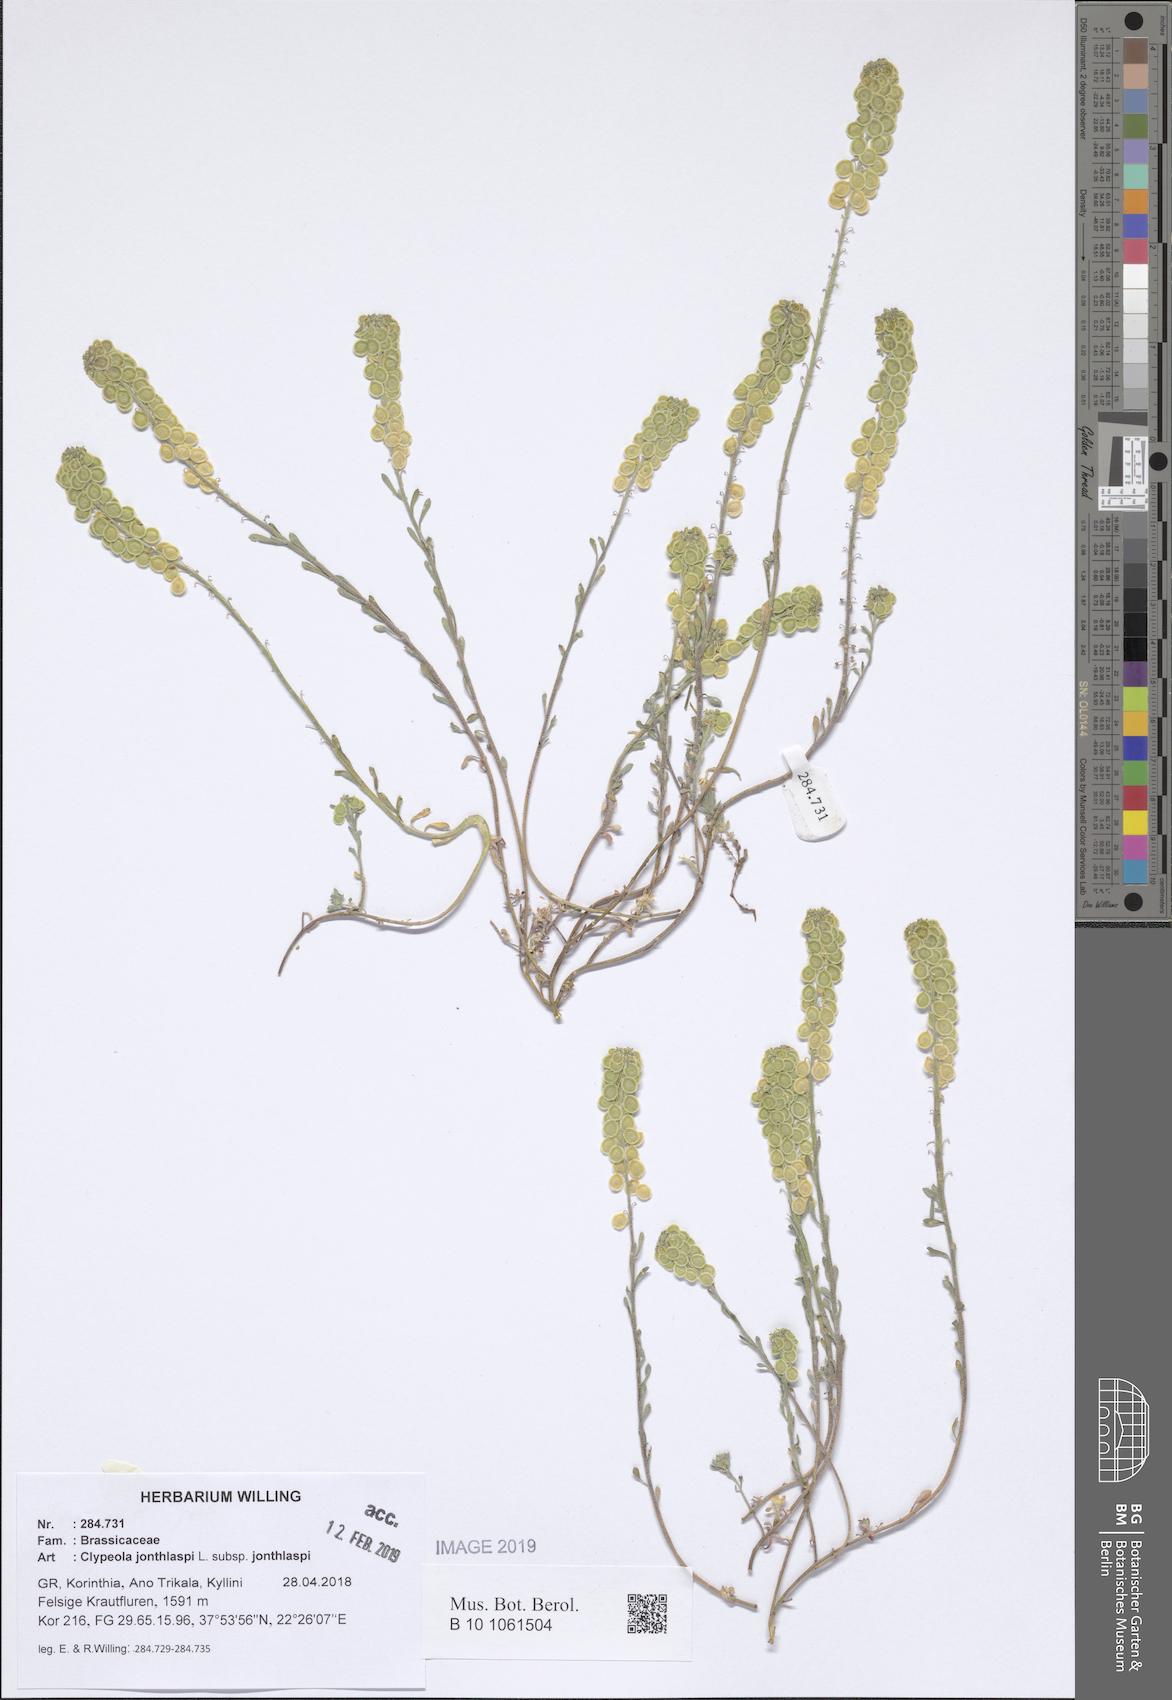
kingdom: Plantae
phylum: Tracheophyta
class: Magnoliopsida
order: Brassicales
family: Brassicaceae
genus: Clypeola
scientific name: Clypeola jonthlaspi
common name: Disk cress
